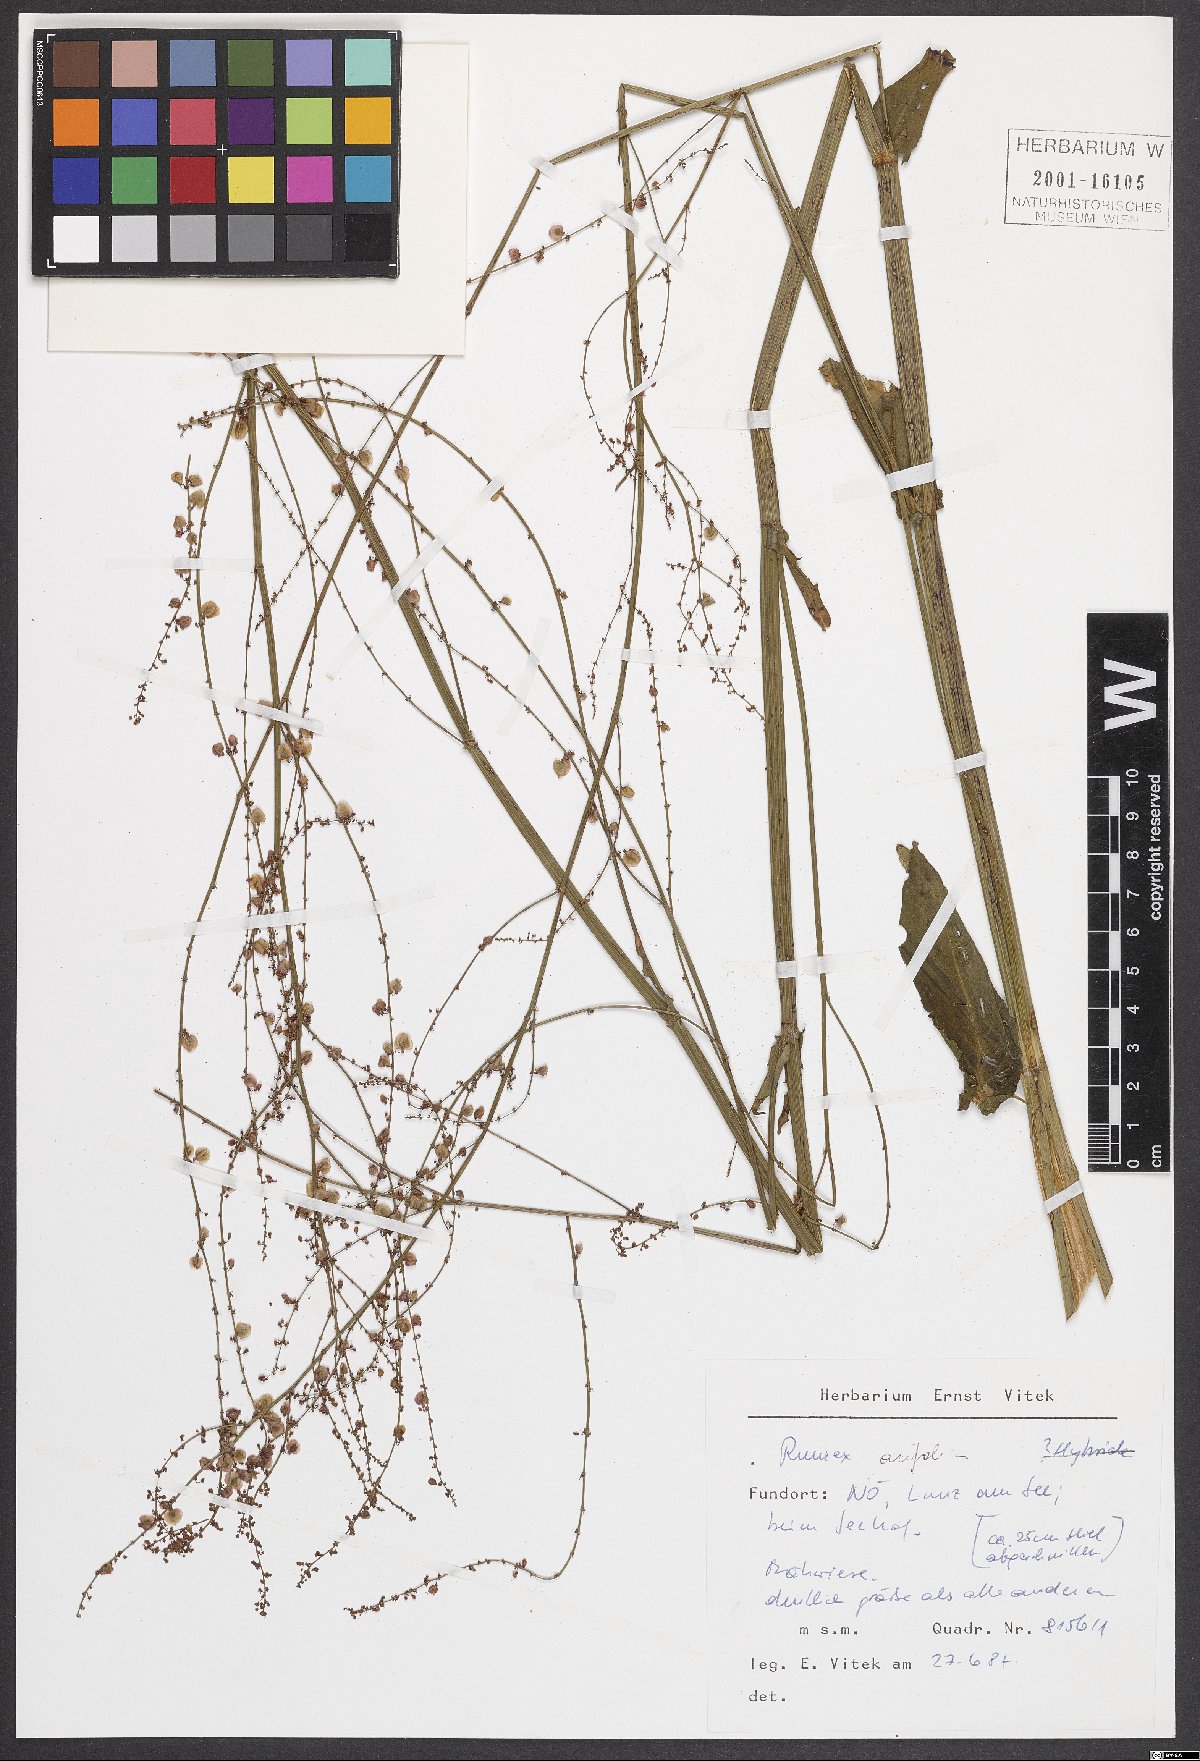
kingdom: Plantae
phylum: Tracheophyta
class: Magnoliopsida
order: Caryophyllales
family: Polygonaceae
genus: Rumex
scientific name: Rumex arifolius
